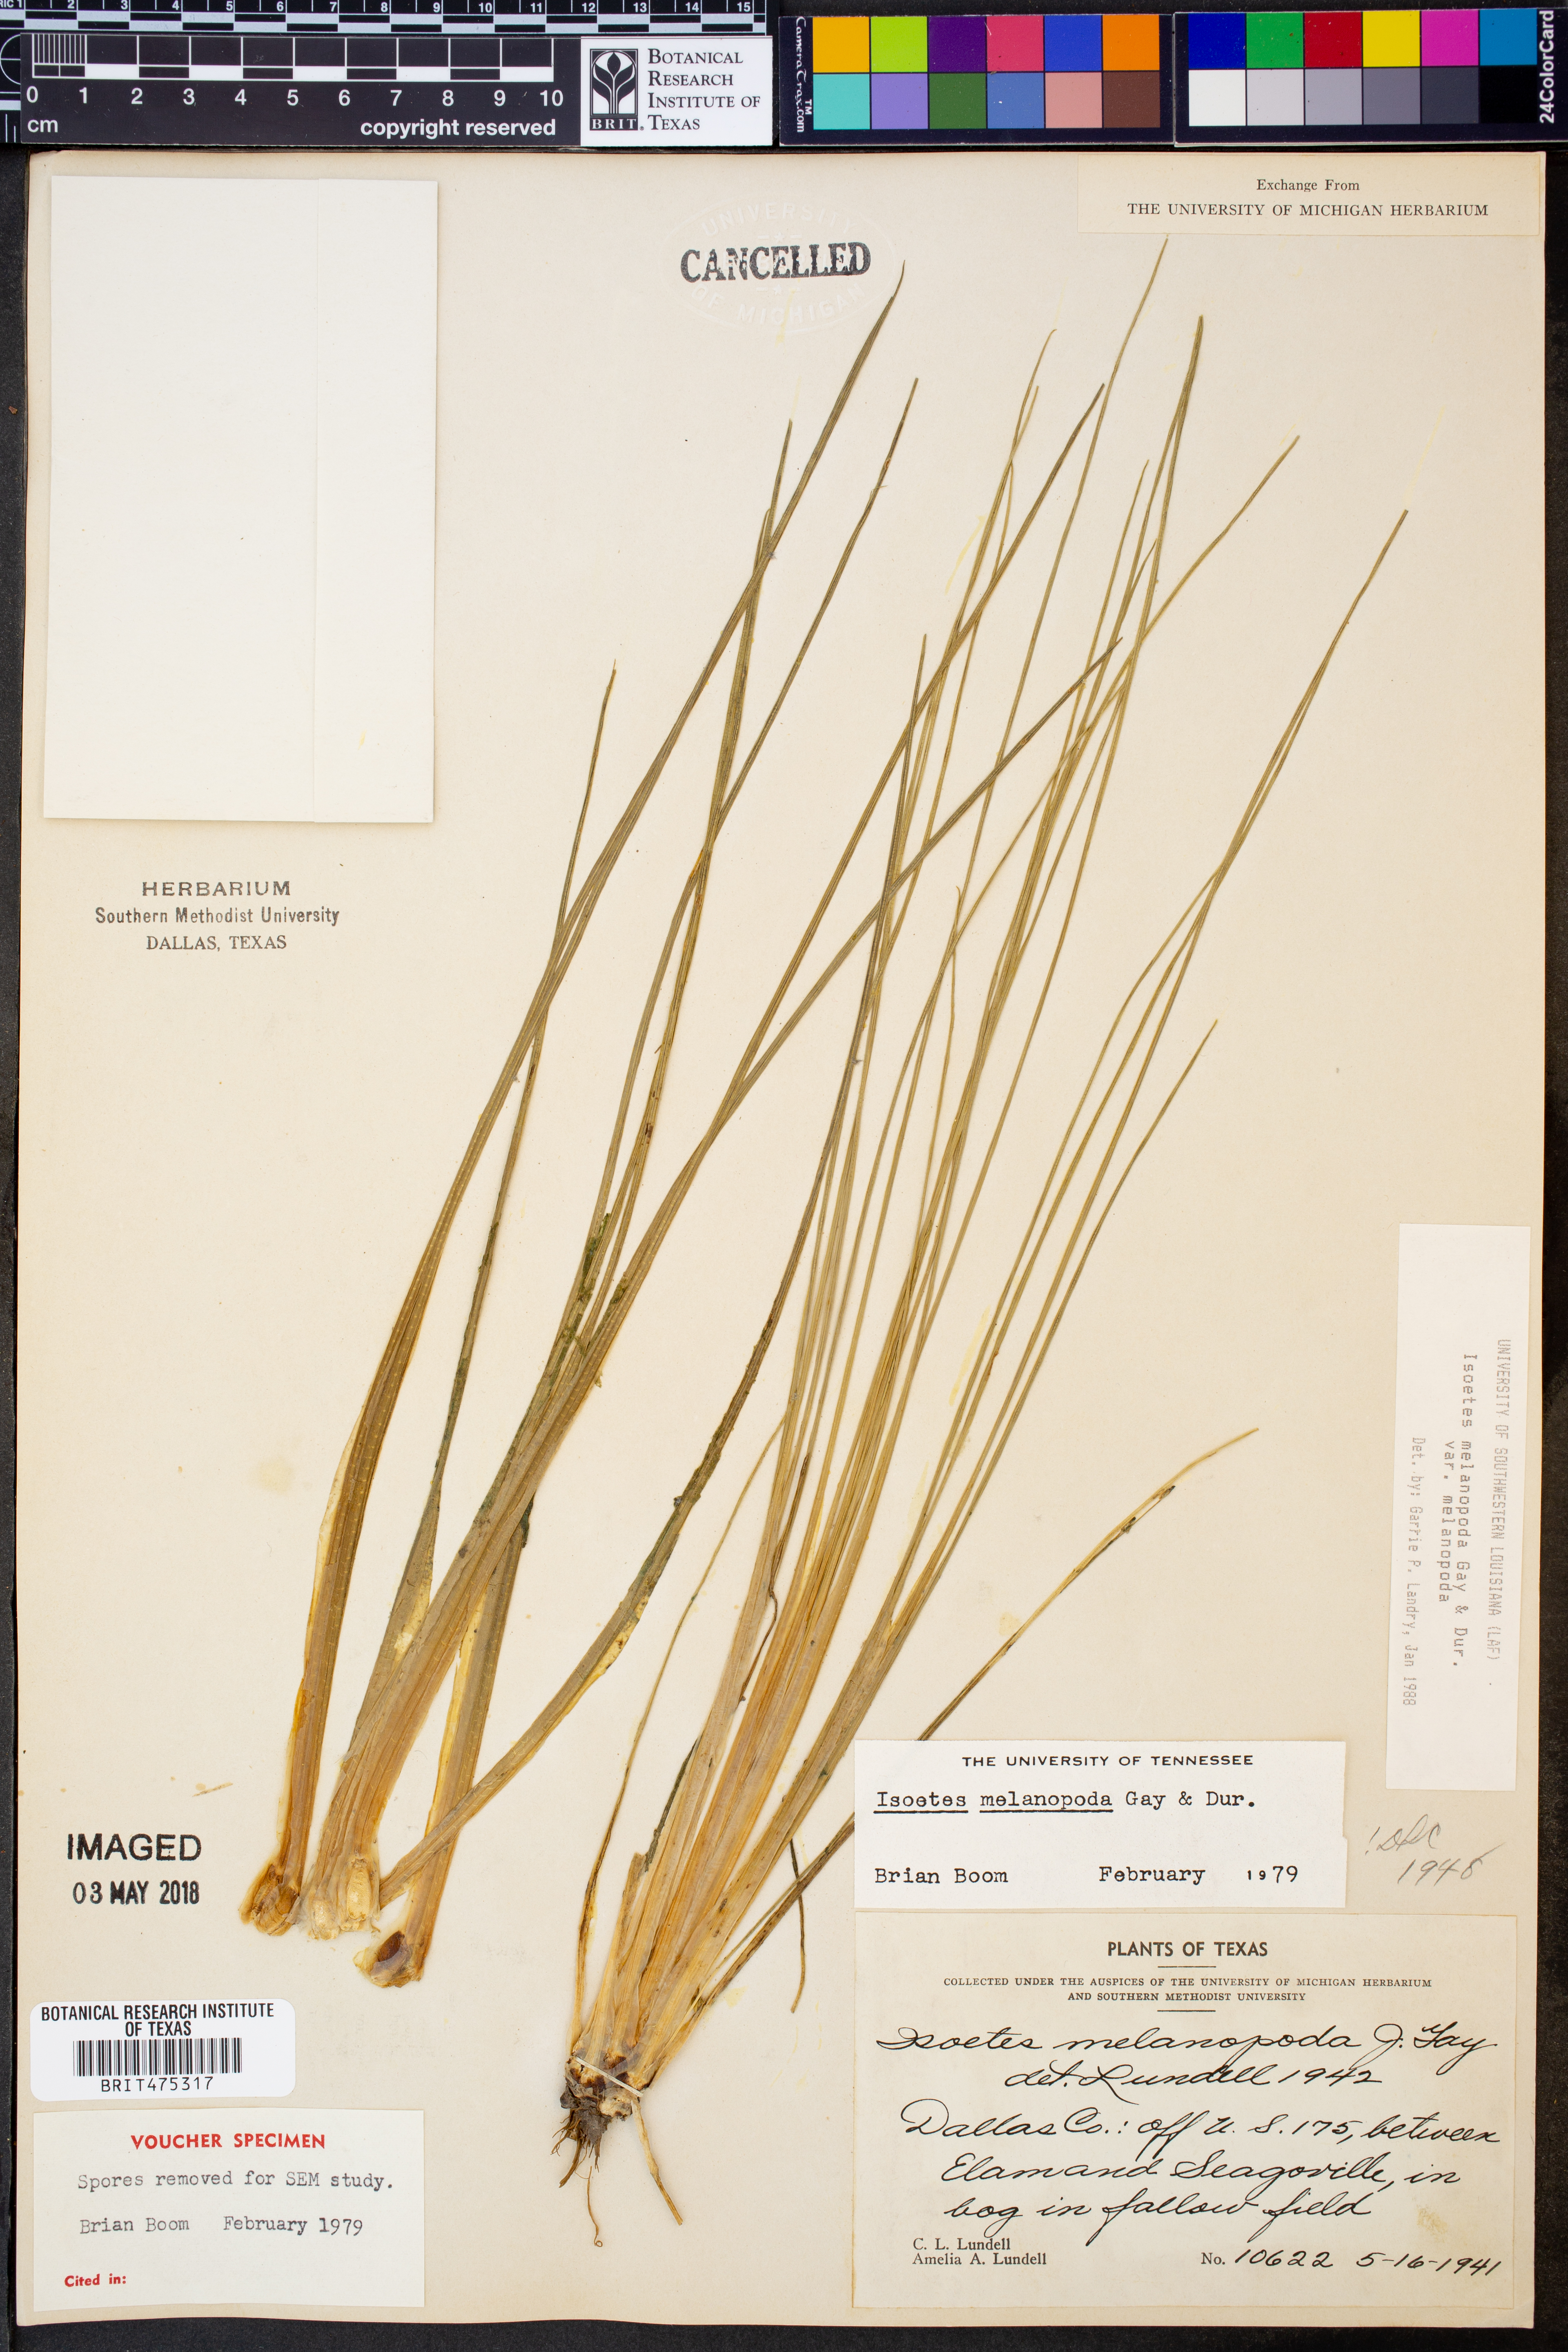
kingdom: Plantae
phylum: Tracheophyta
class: Lycopodiopsida
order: Isoetales
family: Isoetaceae
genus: Isoetes
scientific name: Isoetes melanopoda
